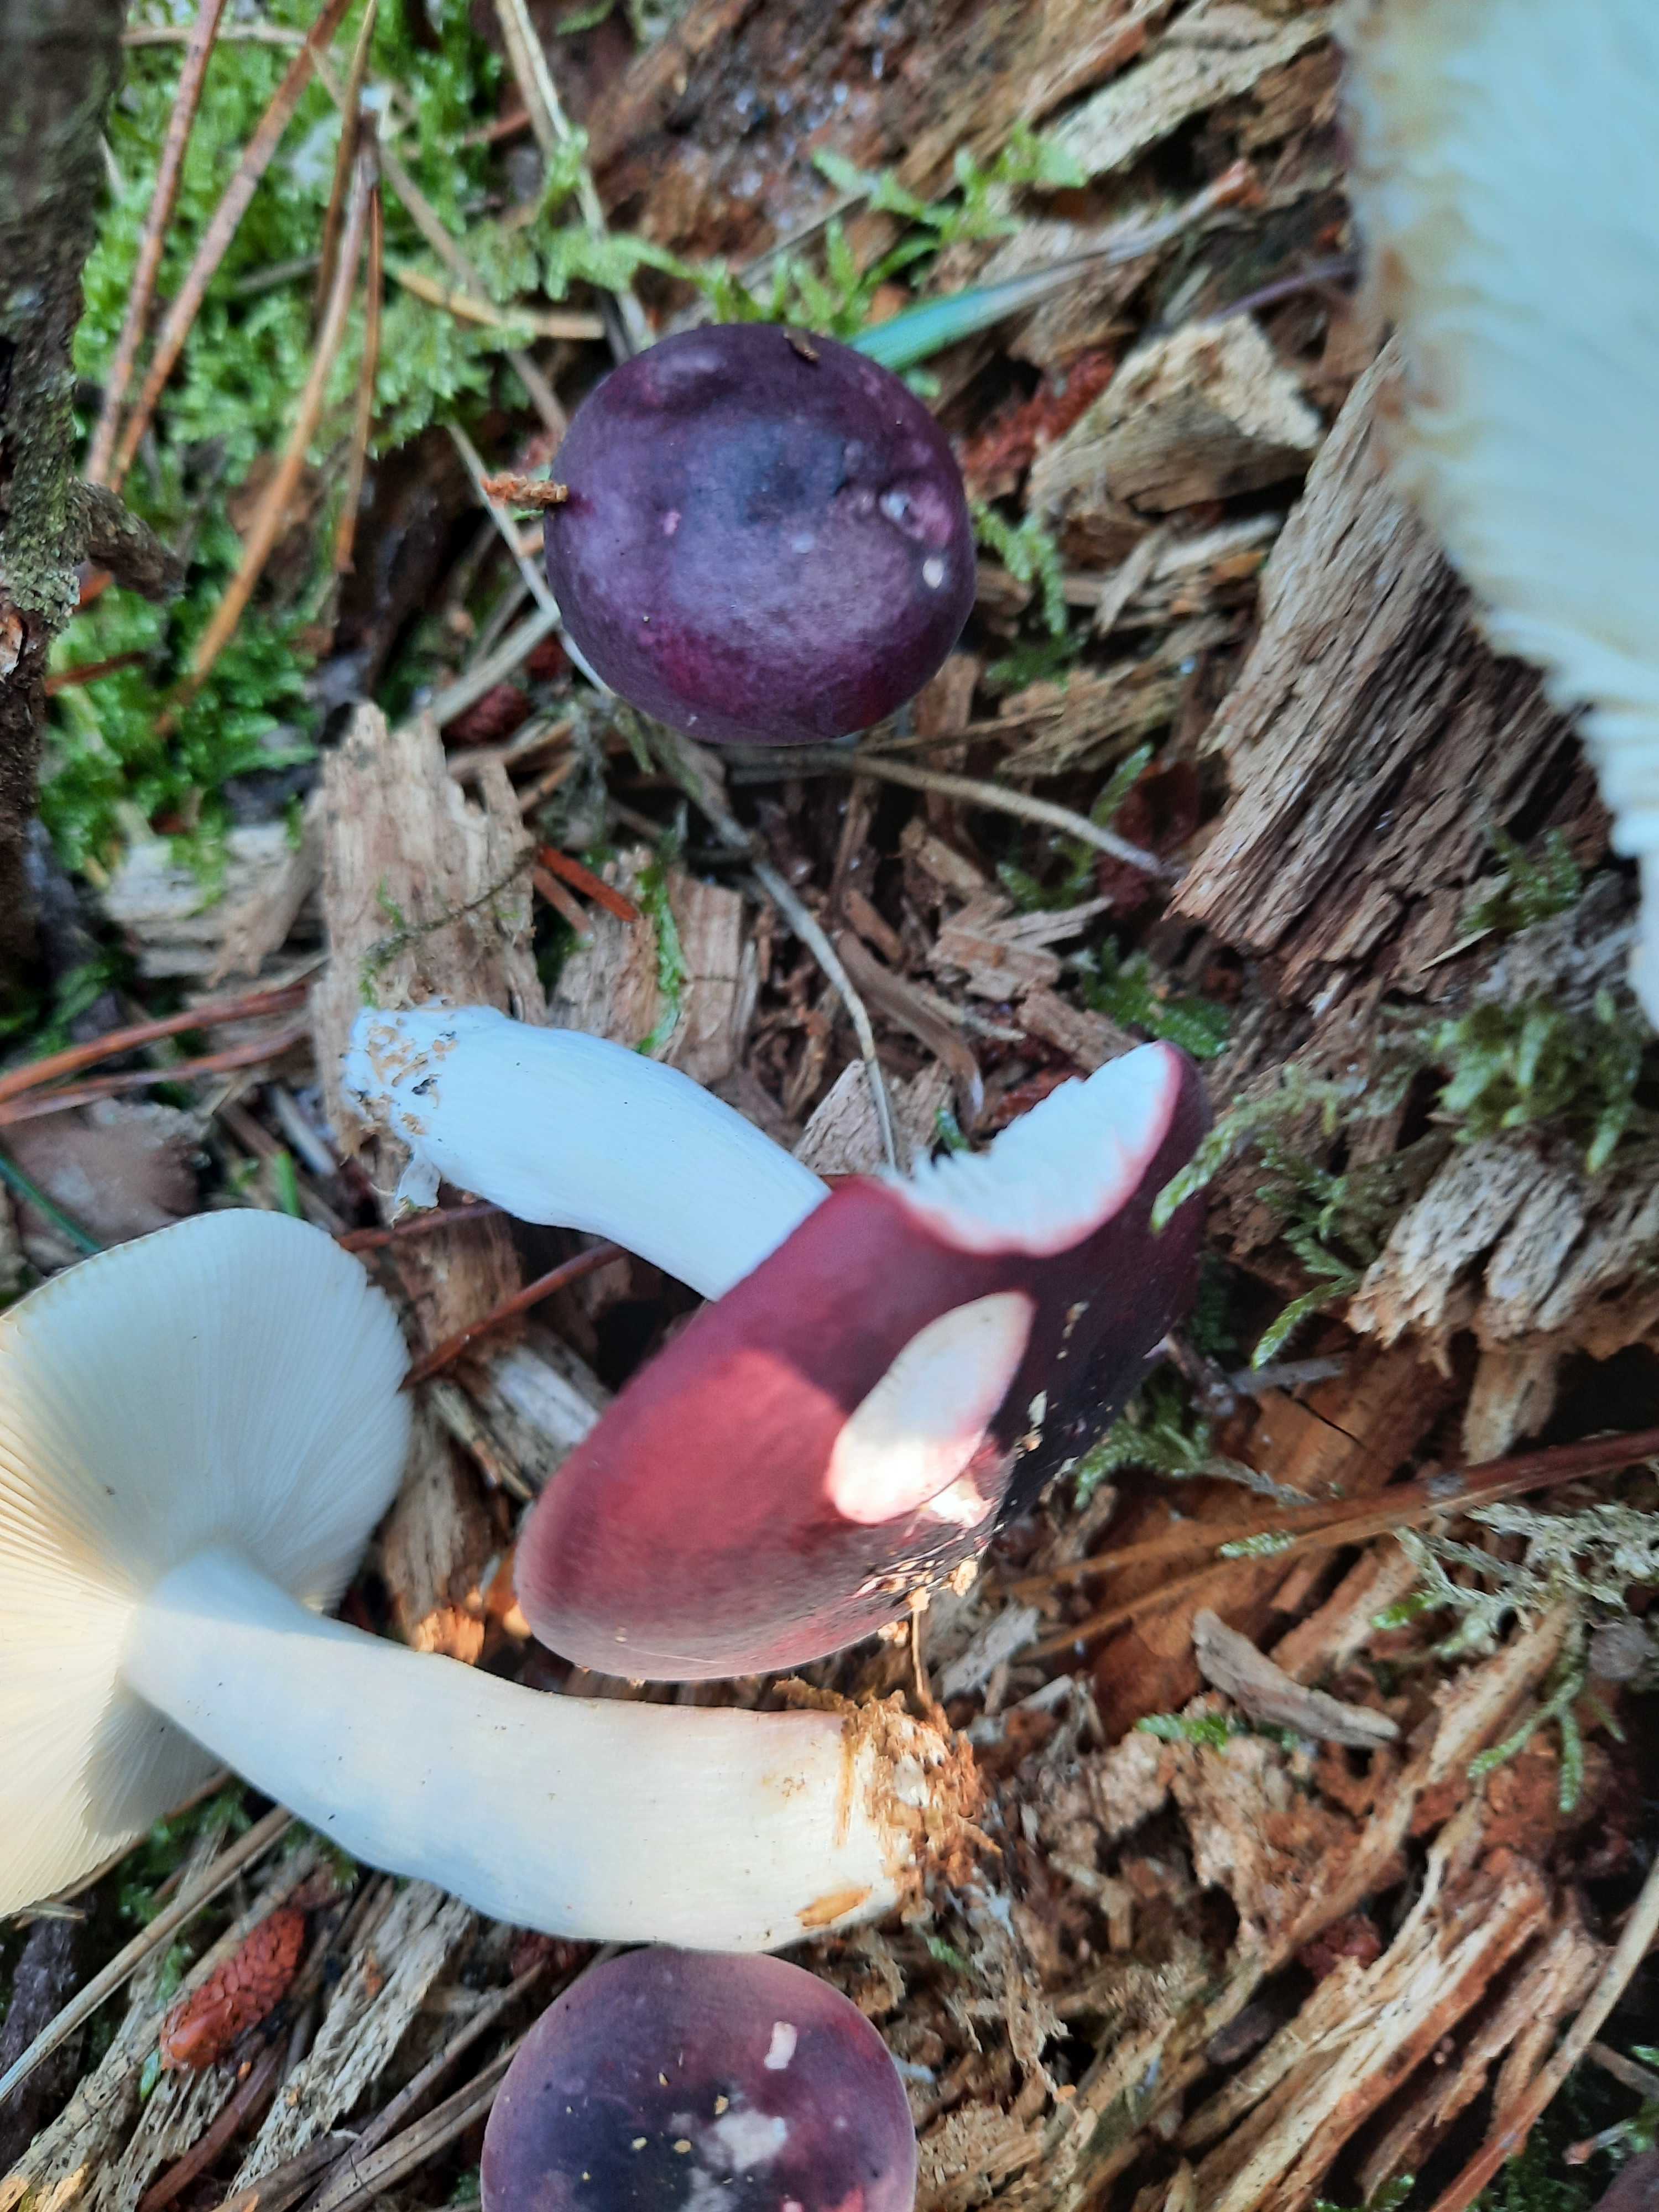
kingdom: Fungi
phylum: Basidiomycota
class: Agaricomycetes
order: Russulales
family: Russulaceae
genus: Russula
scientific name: Russula atrorubens
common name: sortrød skørhat
